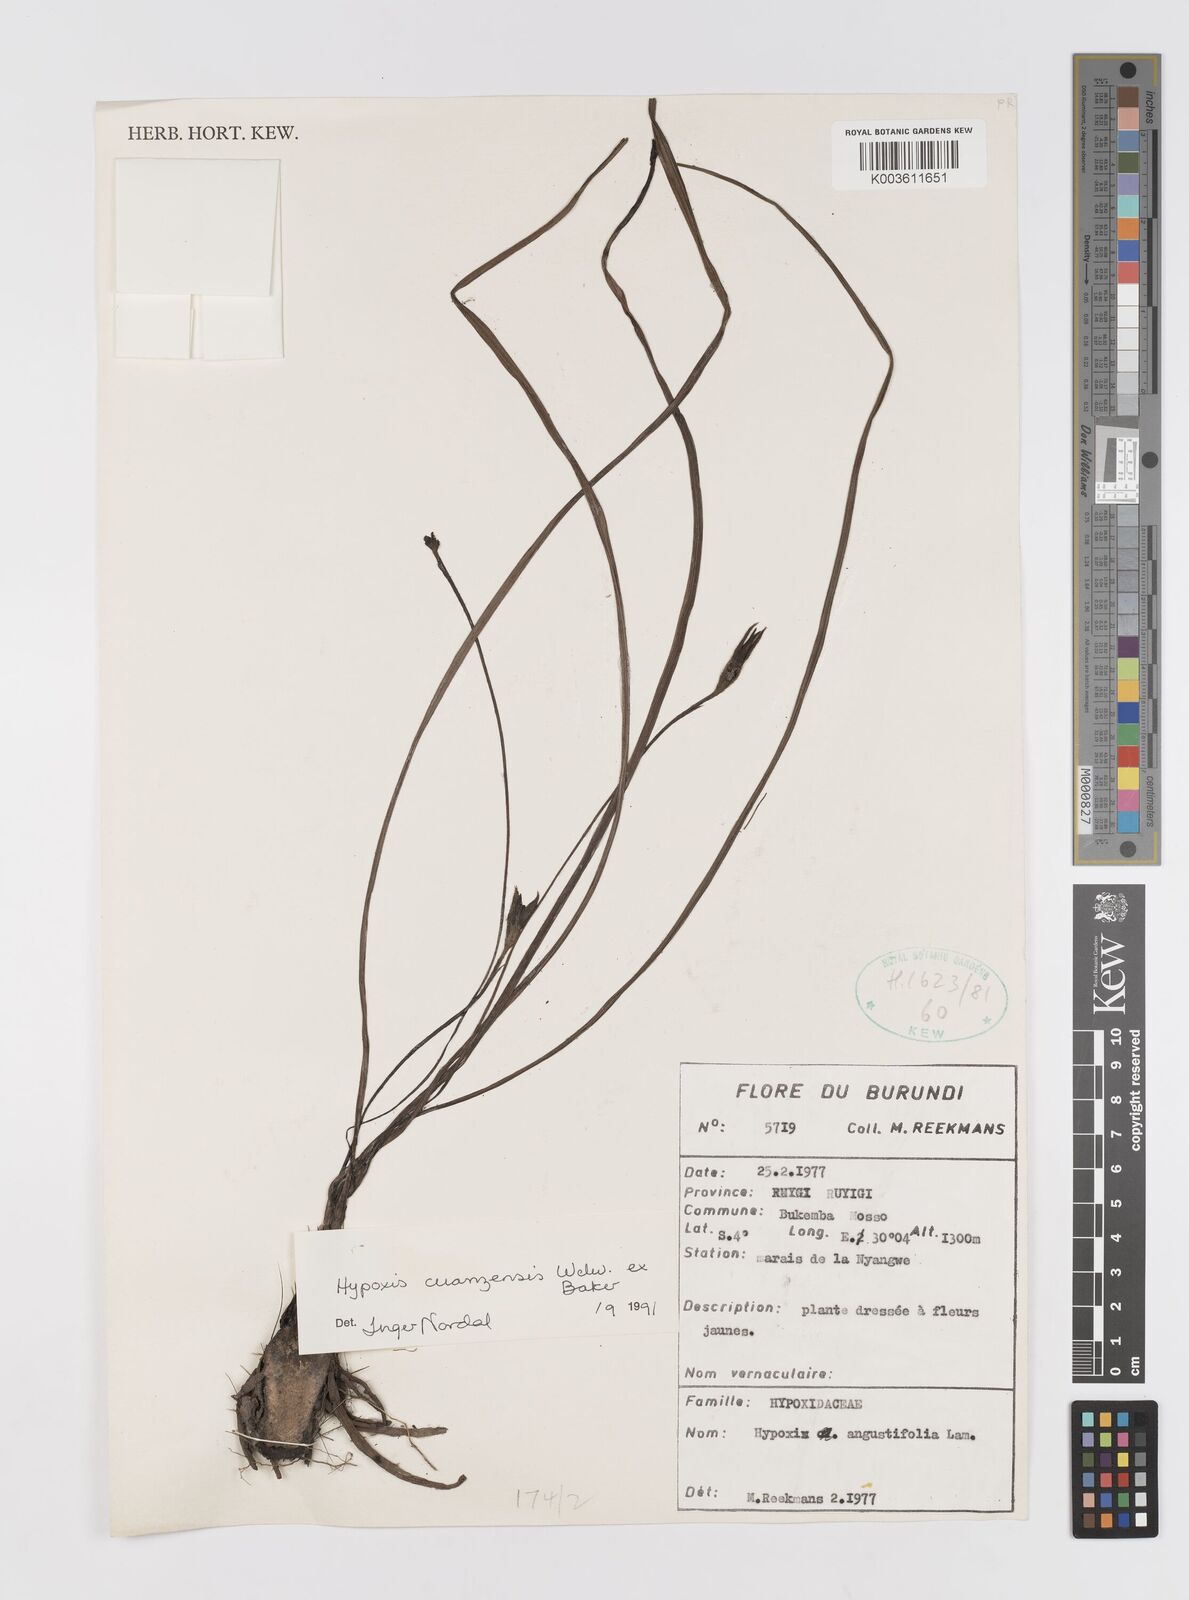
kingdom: Plantae
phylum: Tracheophyta
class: Liliopsida
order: Asparagales
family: Hypoxidaceae
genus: Hypoxis
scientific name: Hypoxis cuanzensis
